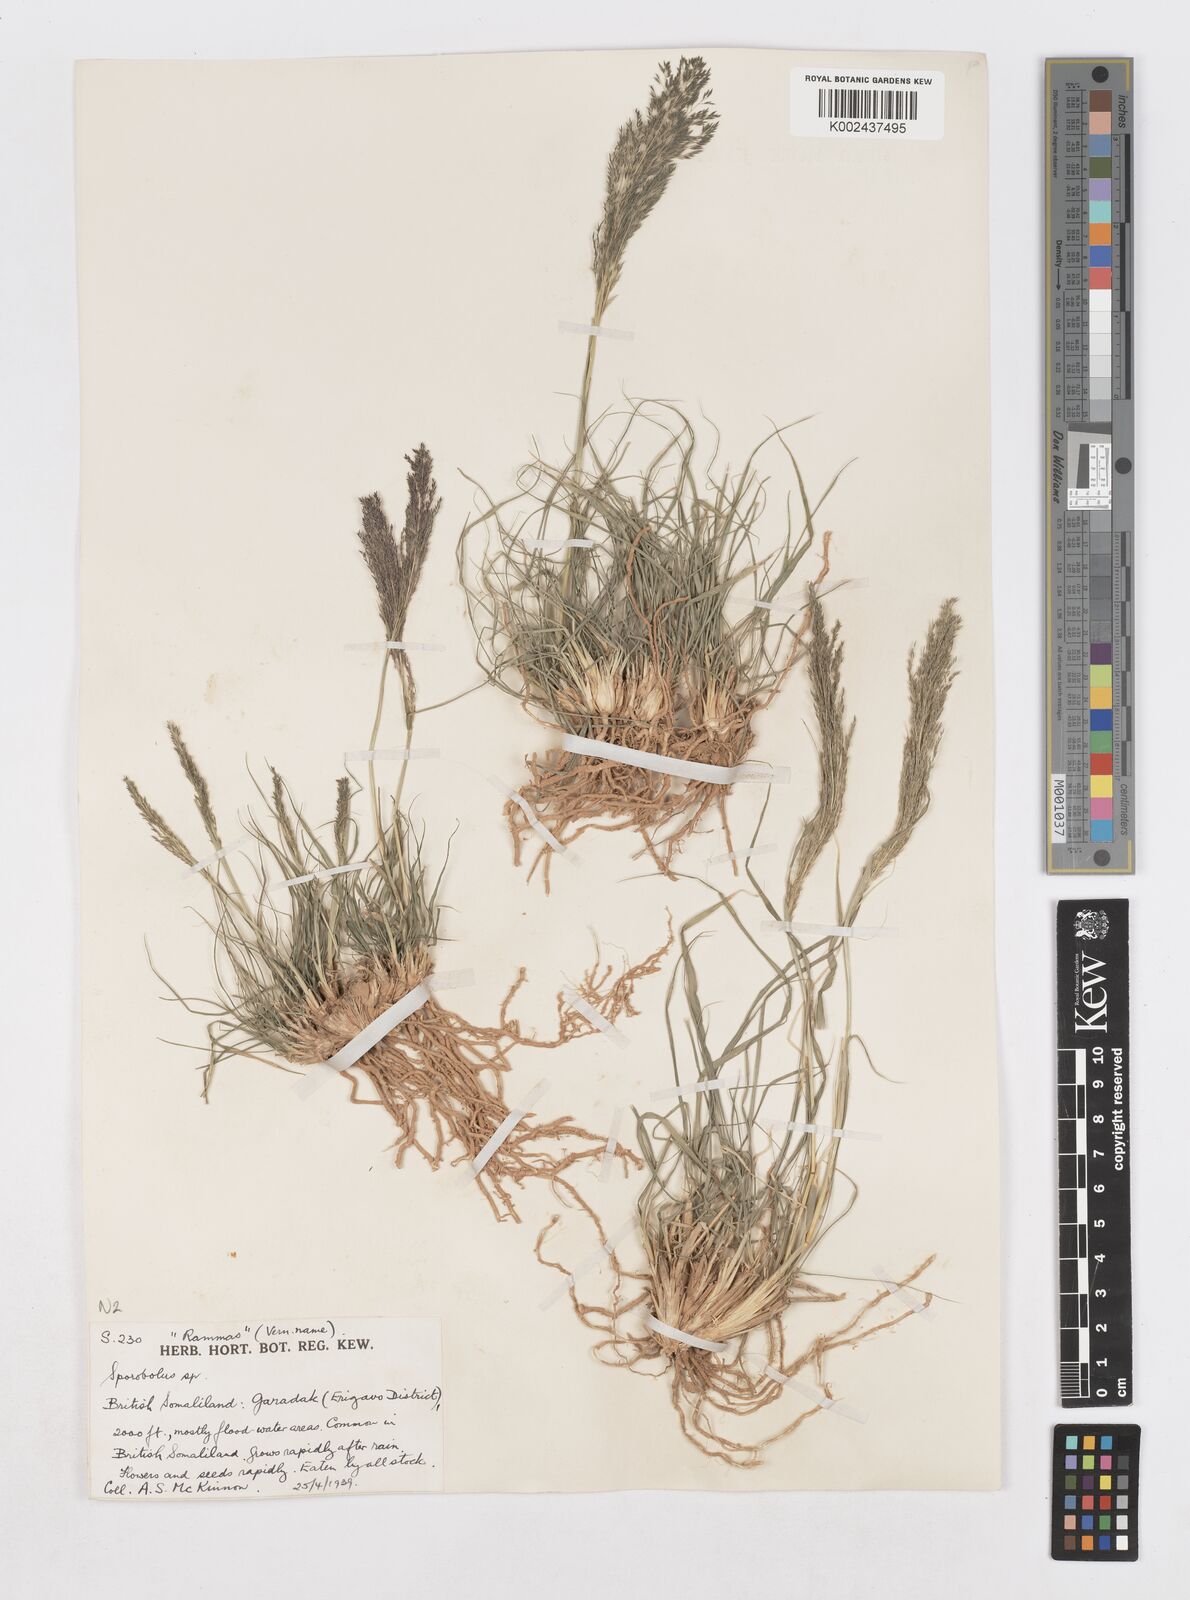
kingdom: Plantae
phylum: Tracheophyta
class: Liliopsida
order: Poales
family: Poaceae
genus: Sporobolus
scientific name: Sporobolus nervosus
